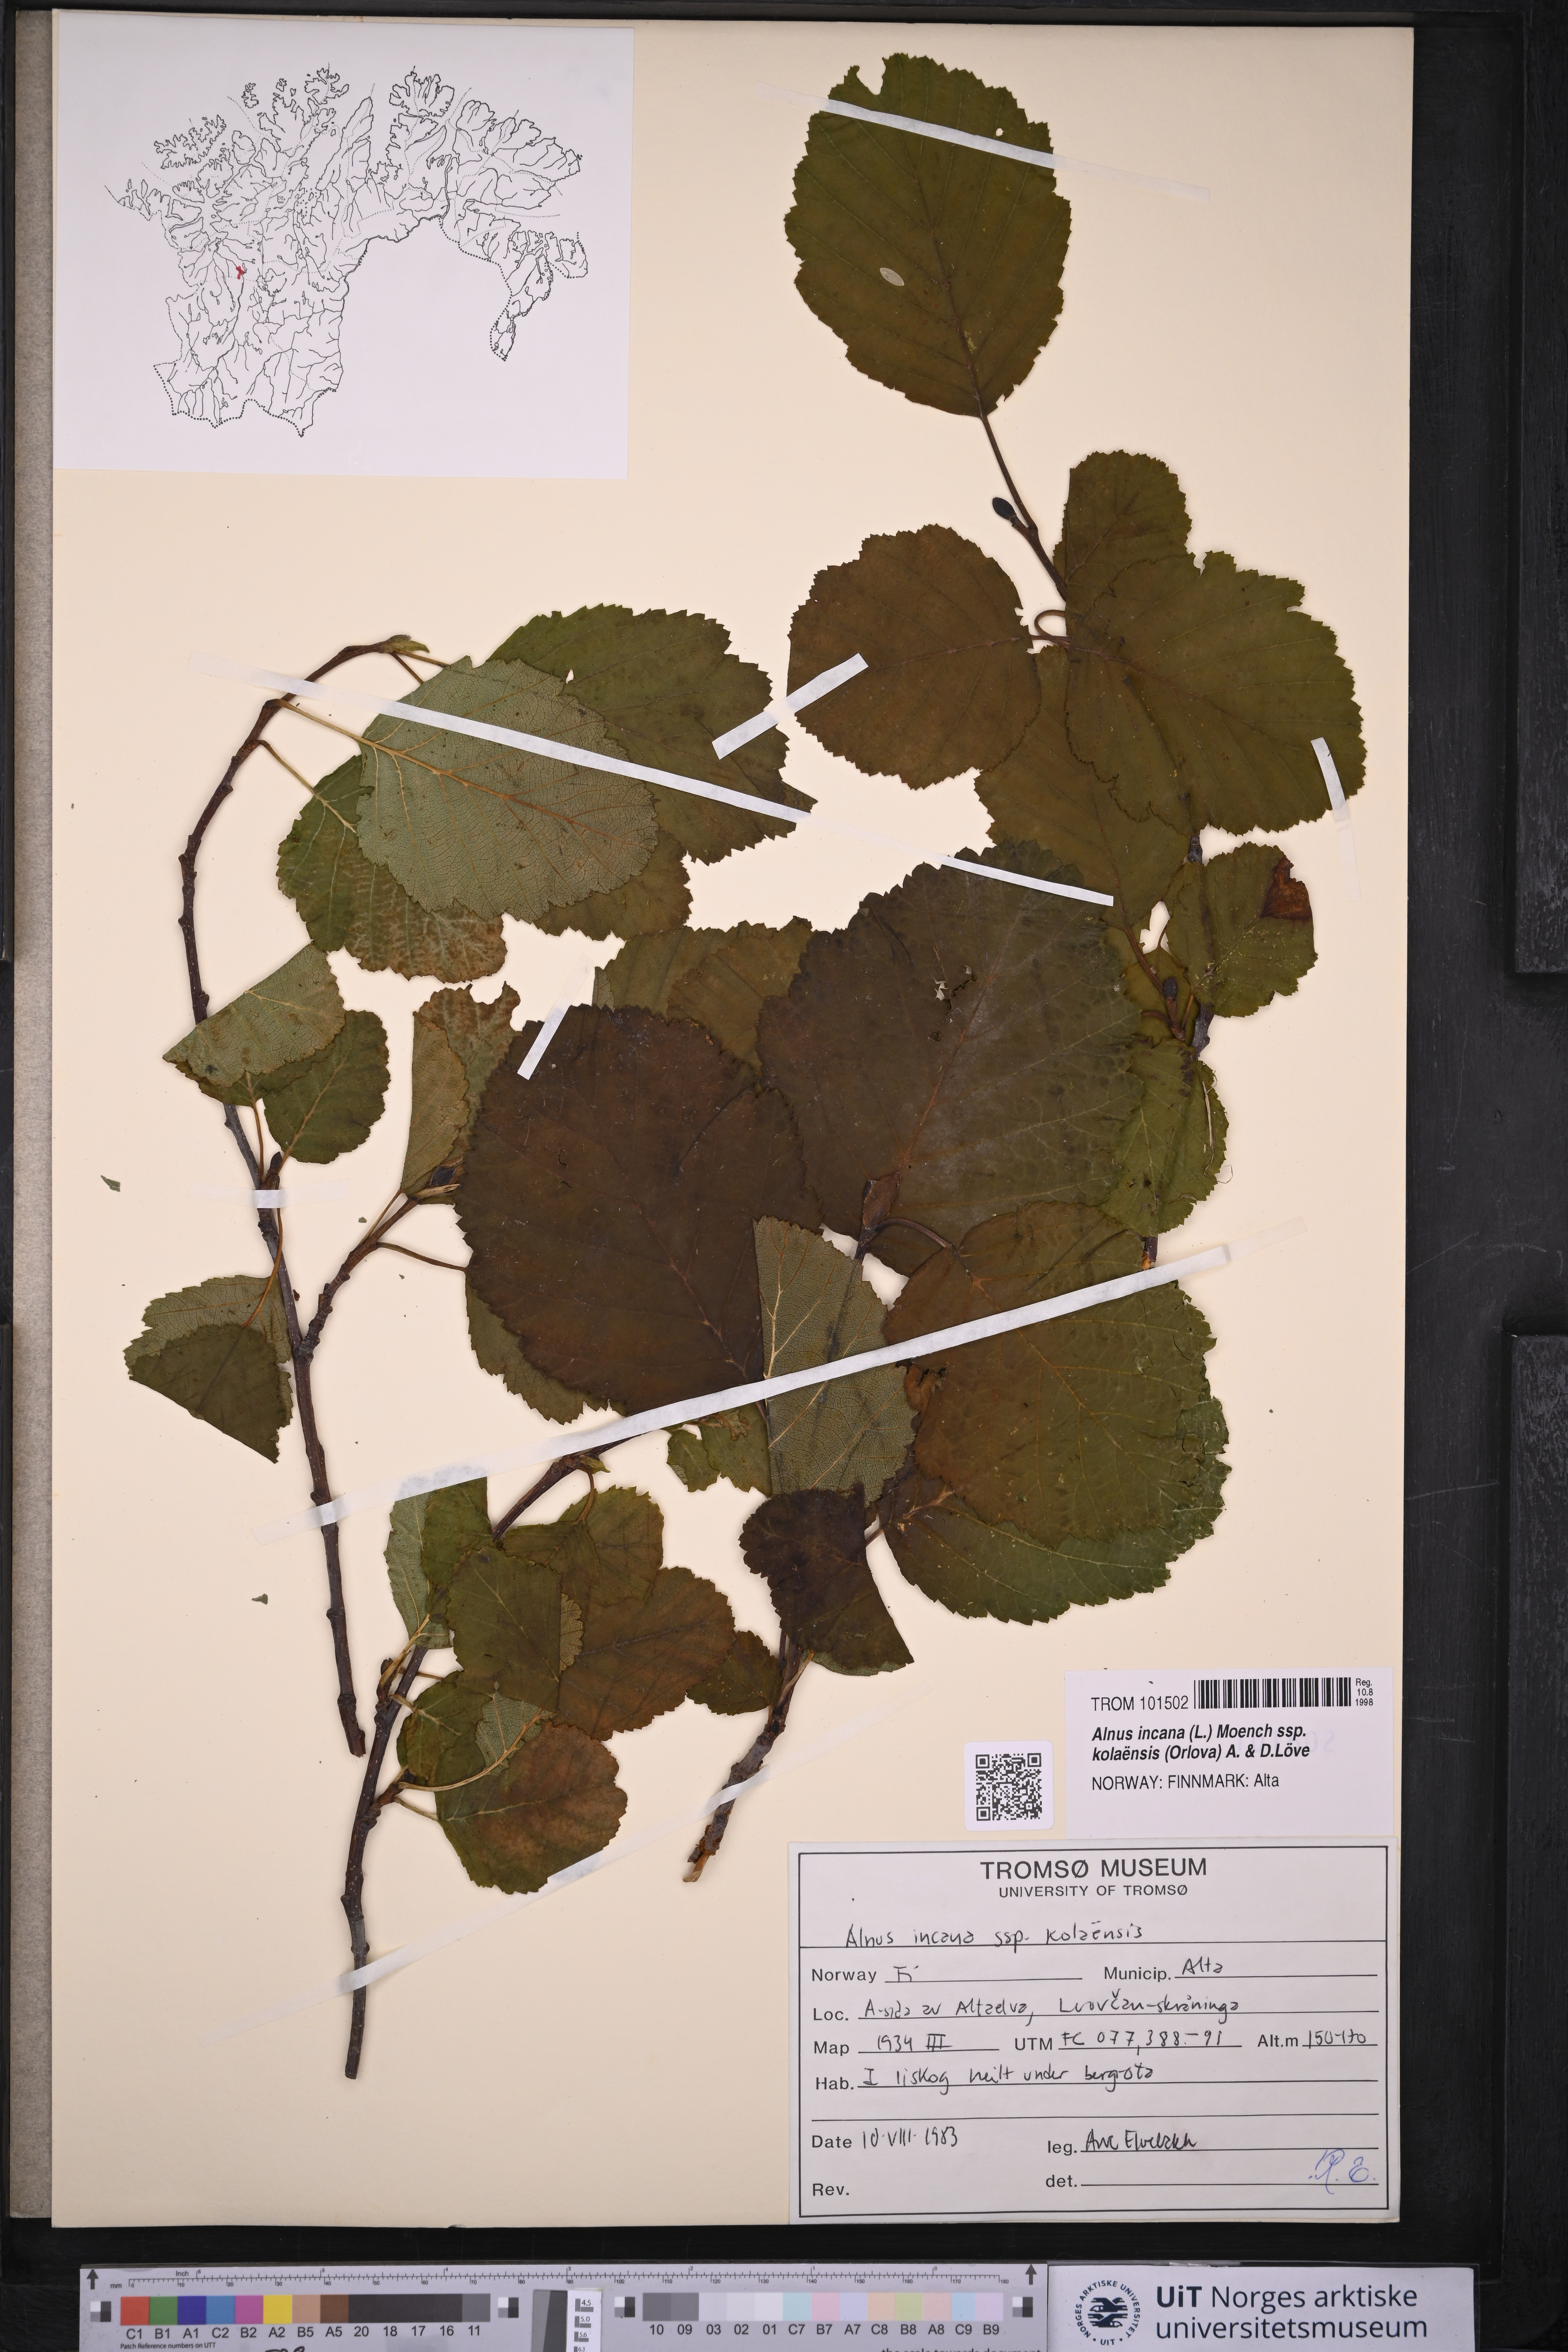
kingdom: Plantae
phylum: Tracheophyta
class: Magnoliopsida
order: Fagales
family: Betulaceae
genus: Alnus
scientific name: Alnus incana
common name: Grey alder
